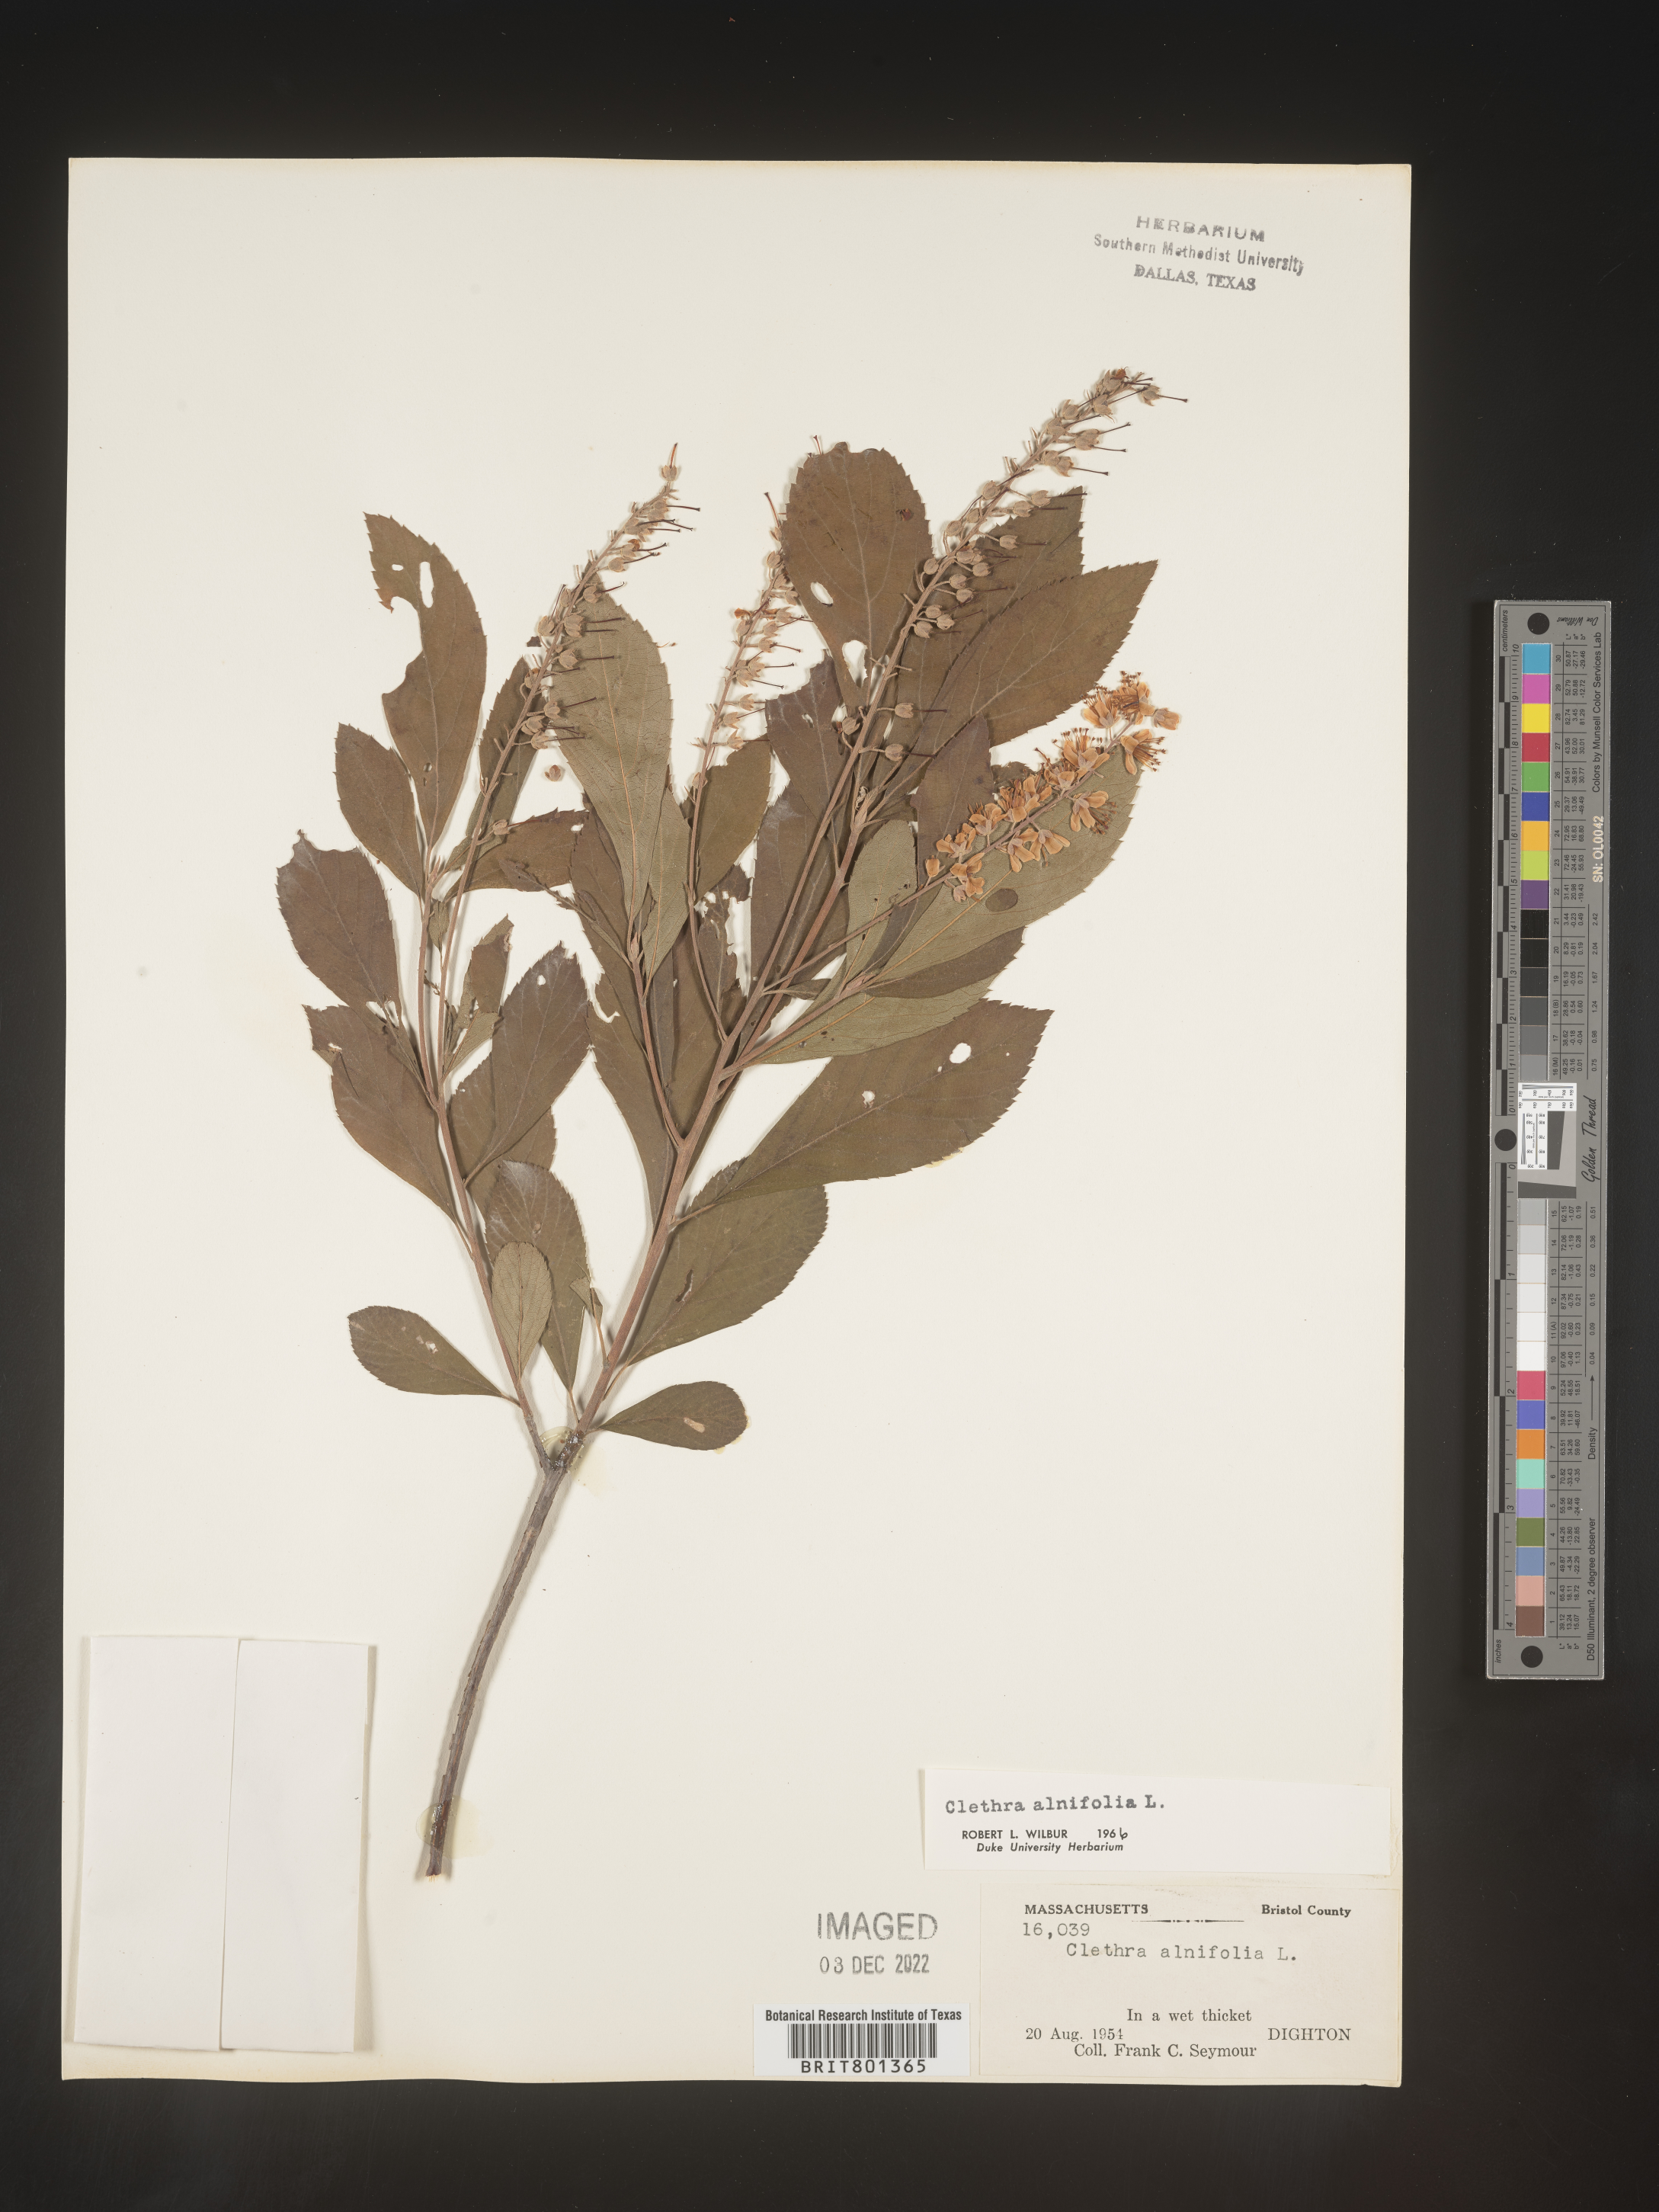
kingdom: Plantae
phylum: Tracheophyta
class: Magnoliopsida
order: Ericales
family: Clethraceae
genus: Clethra
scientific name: Clethra alnifolia
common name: Sweet pepperbush
